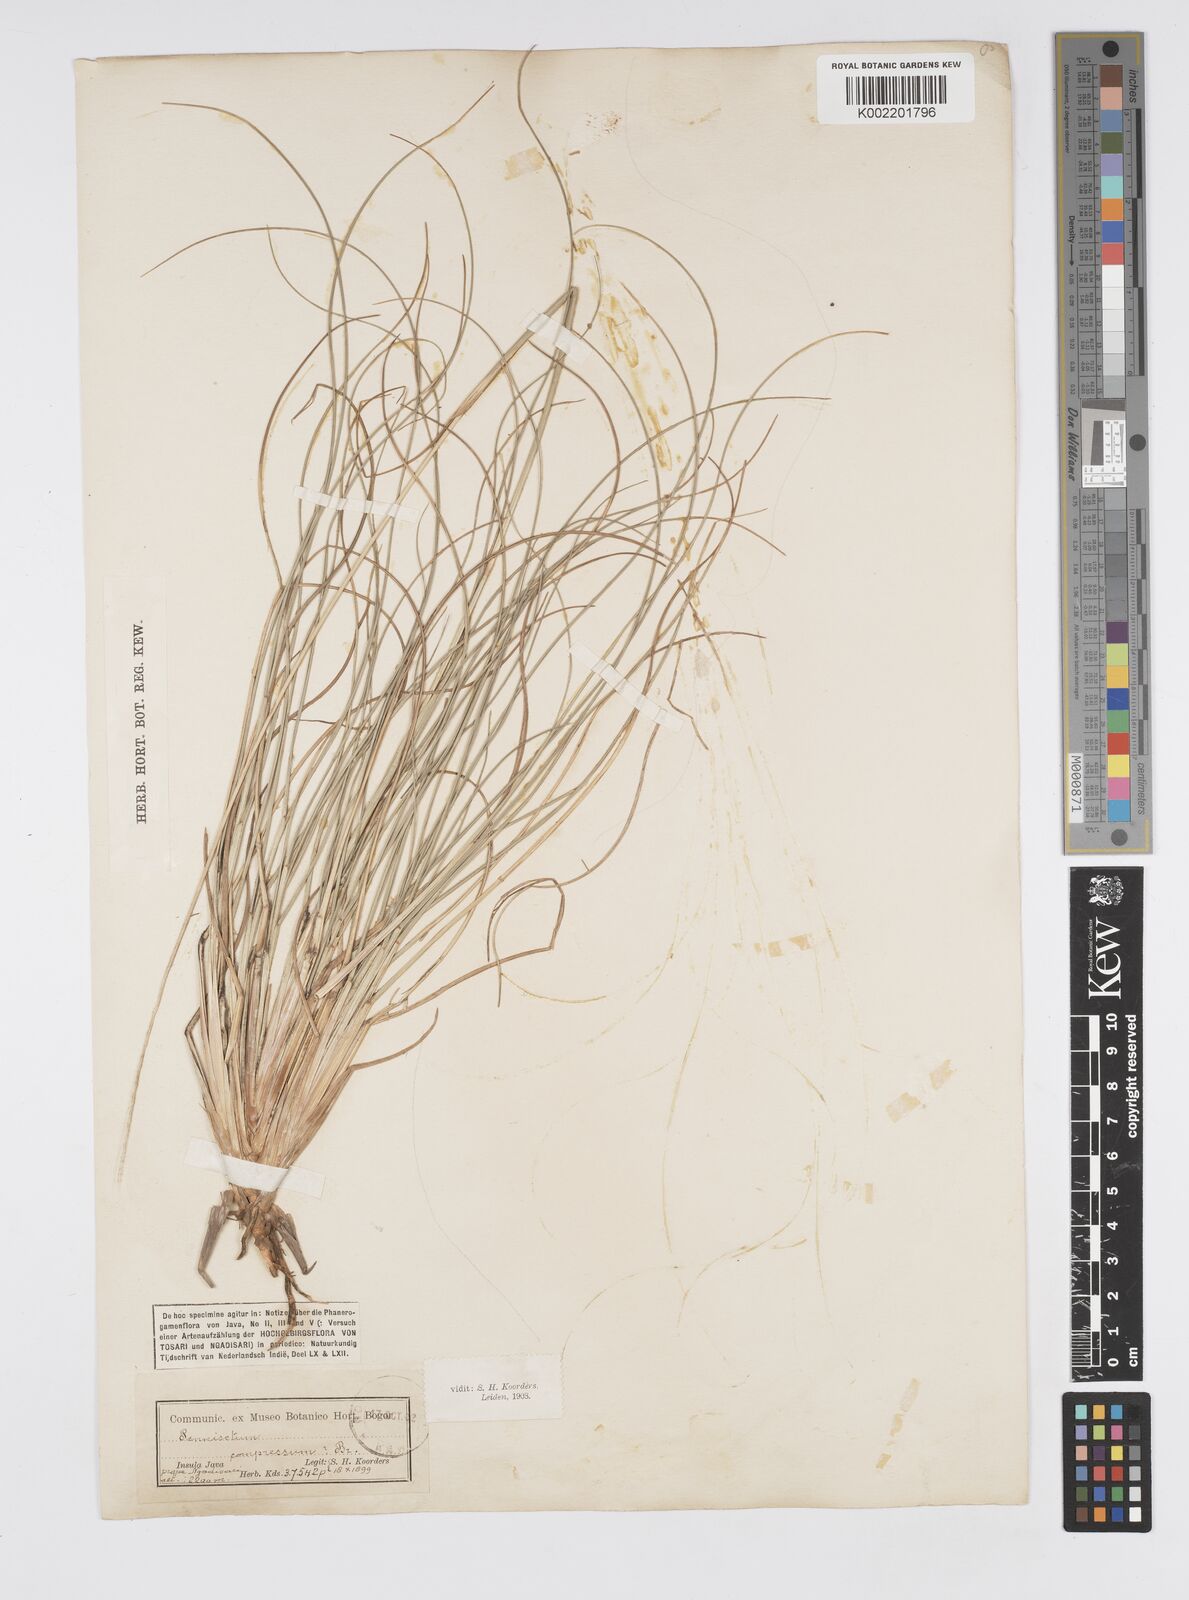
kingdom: Plantae
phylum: Tracheophyta
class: Liliopsida
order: Poales
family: Poaceae
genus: Cenchrus
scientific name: Cenchrus alopecuroides
